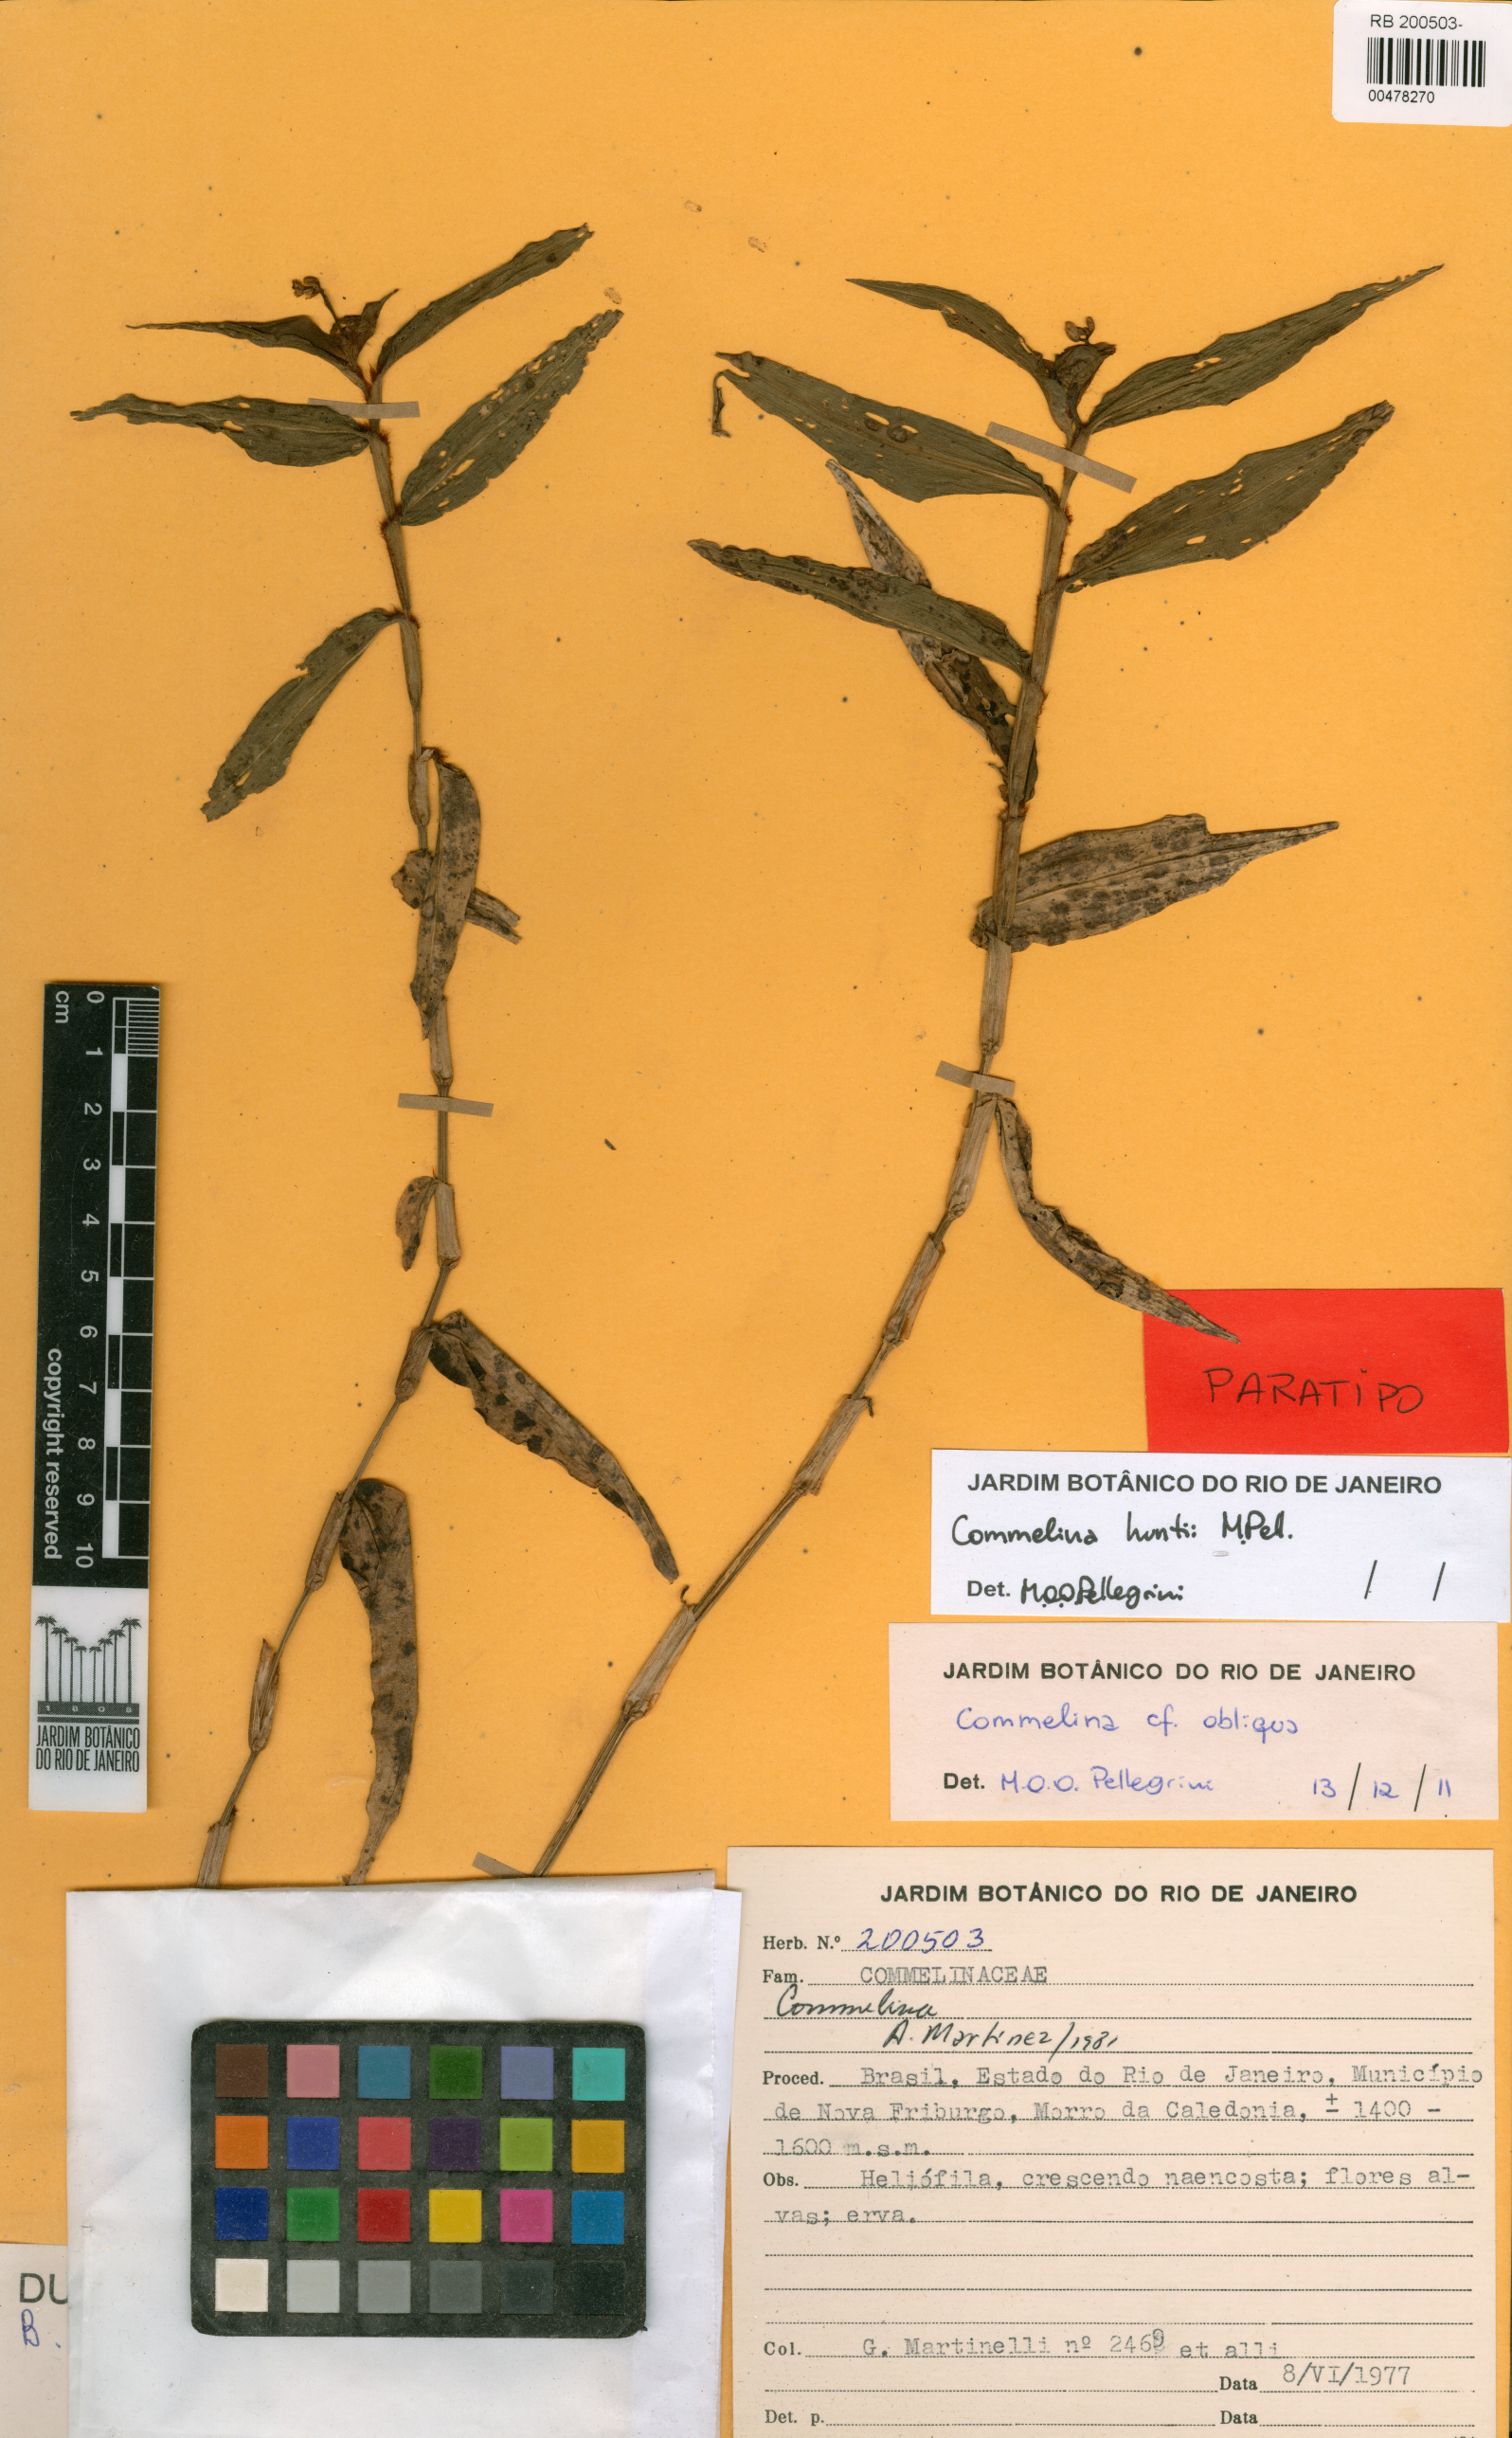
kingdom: Plantae
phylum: Tracheophyta
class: Liliopsida
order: Commelinales
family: Commelinaceae
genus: Commelina
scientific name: Commelina huntii
